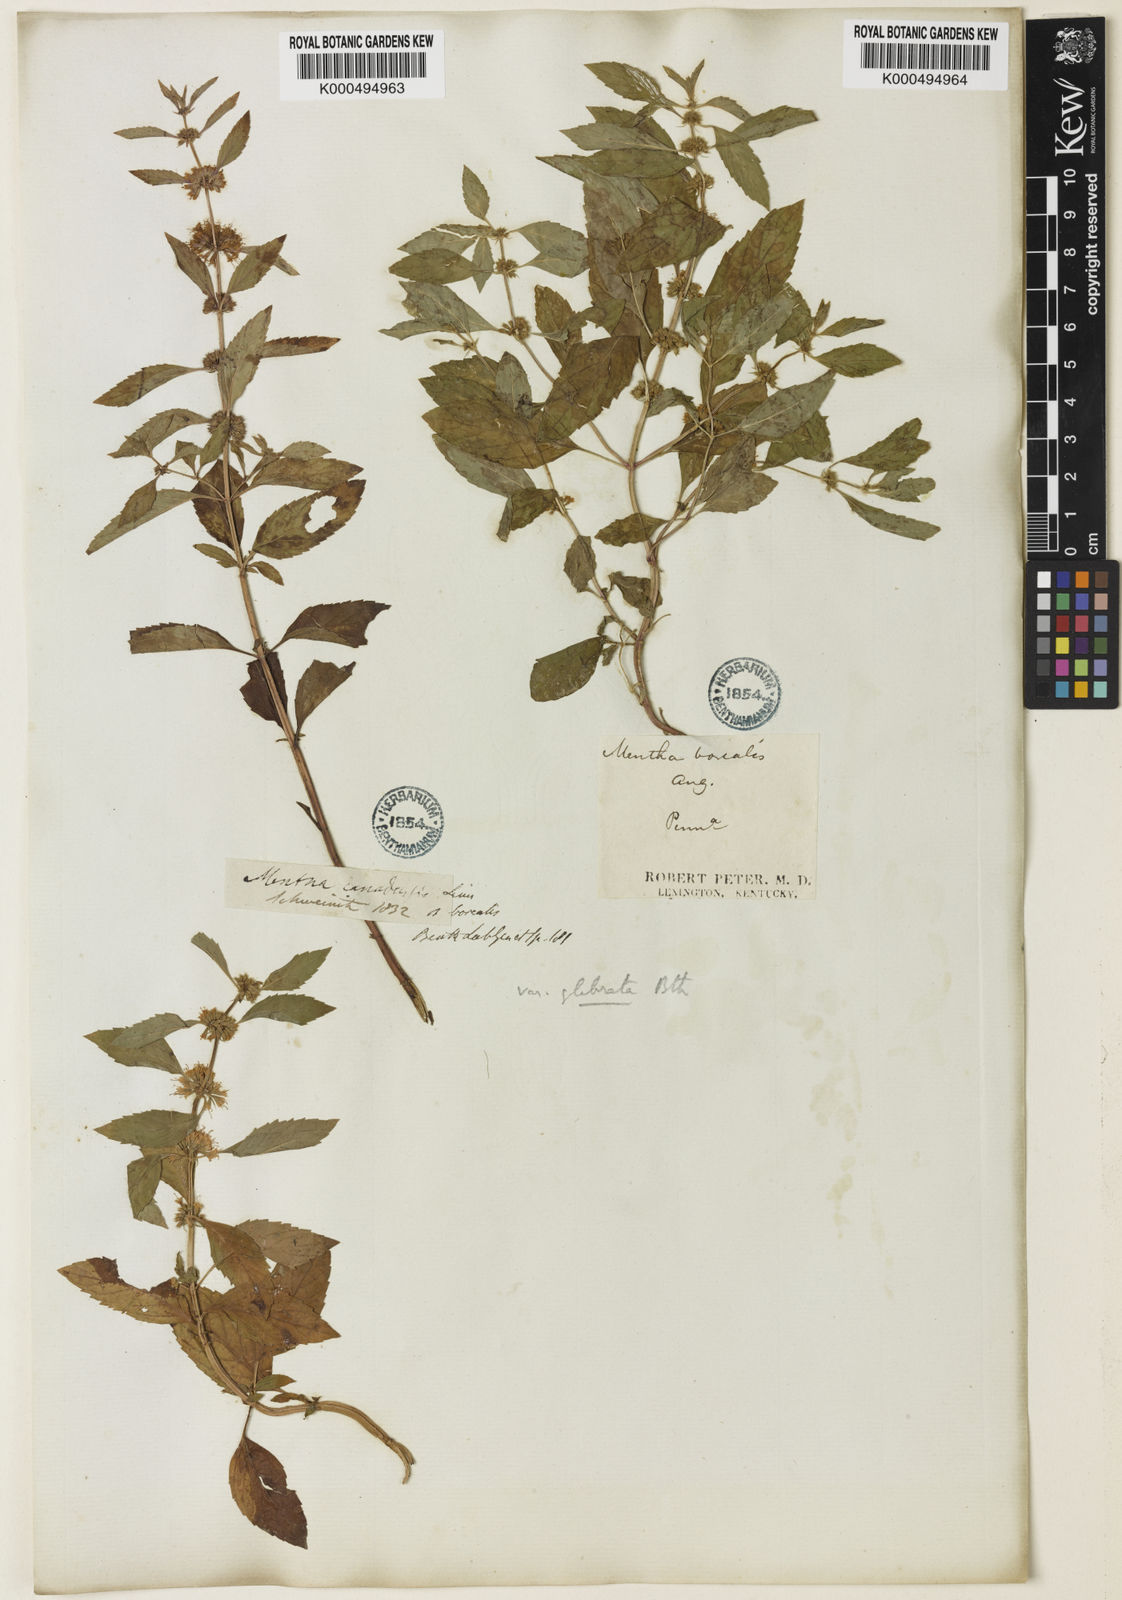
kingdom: Plantae
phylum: Tracheophyta
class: Magnoliopsida
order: Lamiales
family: Lamiaceae
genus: Mentha
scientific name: Mentha canadensis
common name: American corn mint
